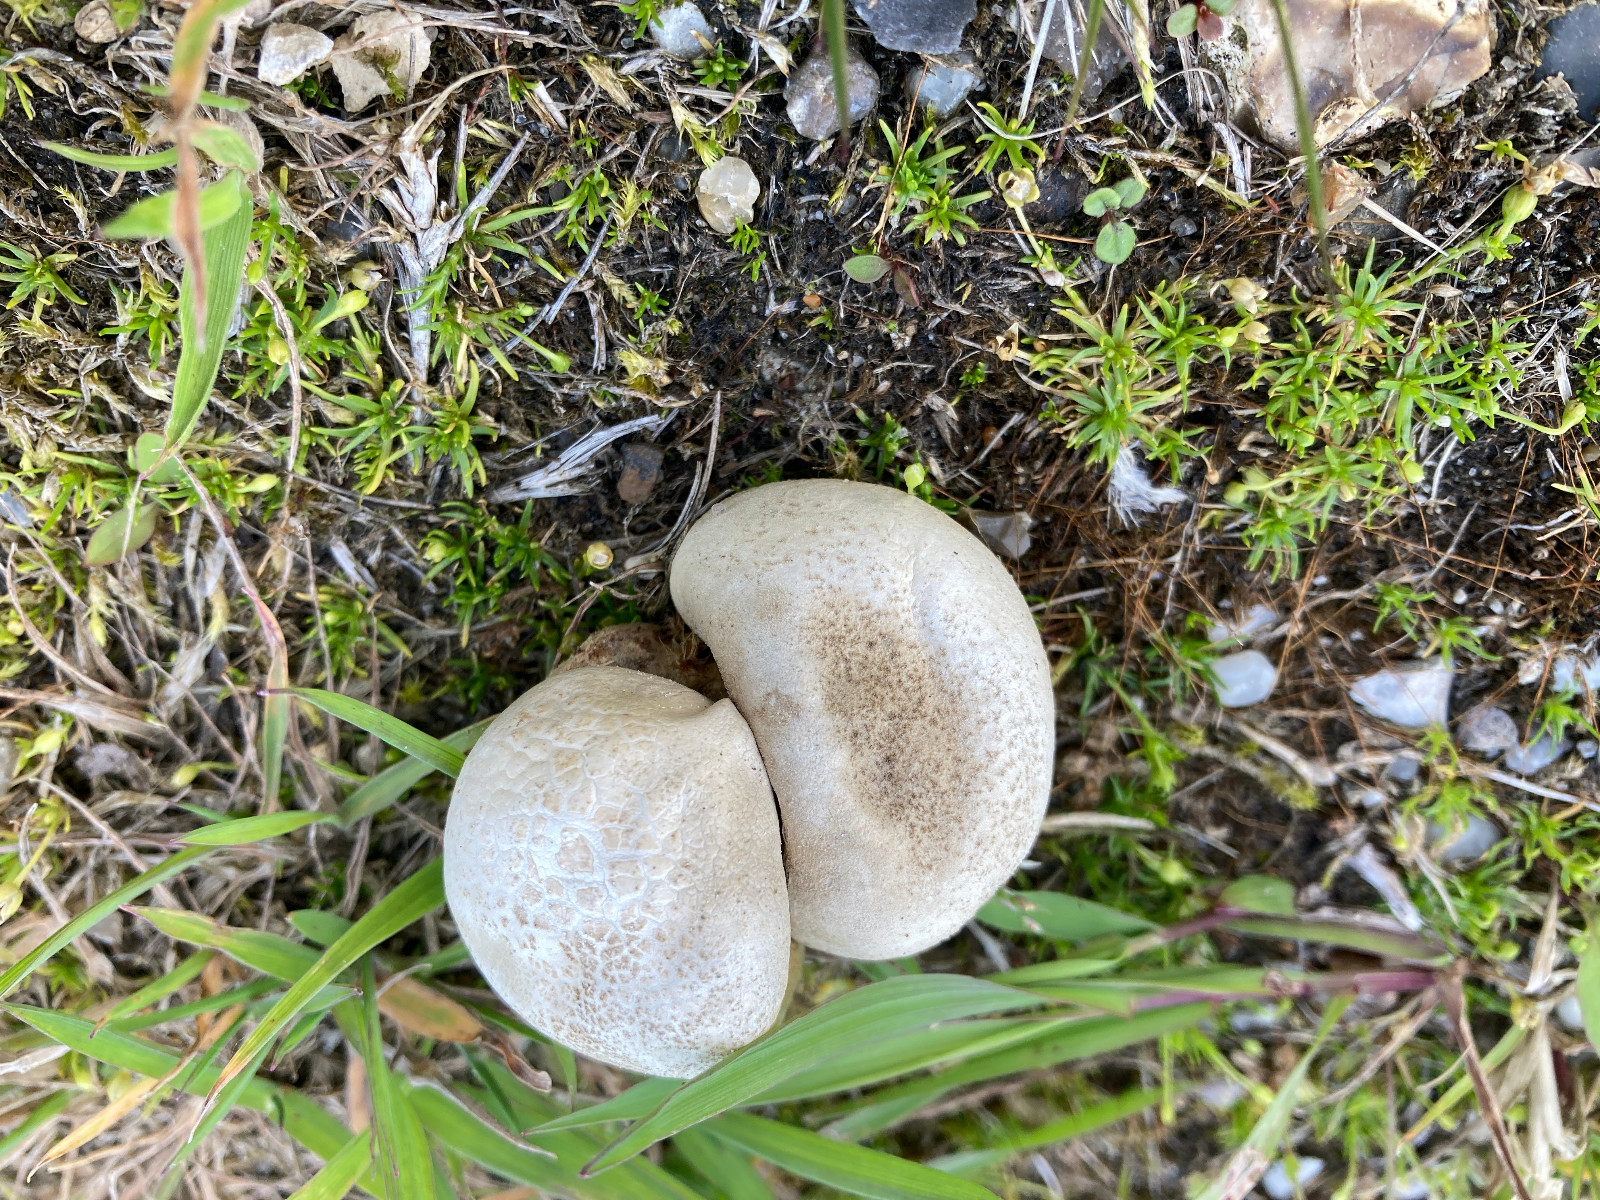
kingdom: Fungi
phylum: Basidiomycota
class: Agaricomycetes
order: Agaricales
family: Lycoperdaceae
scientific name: Lycoperdaceae
